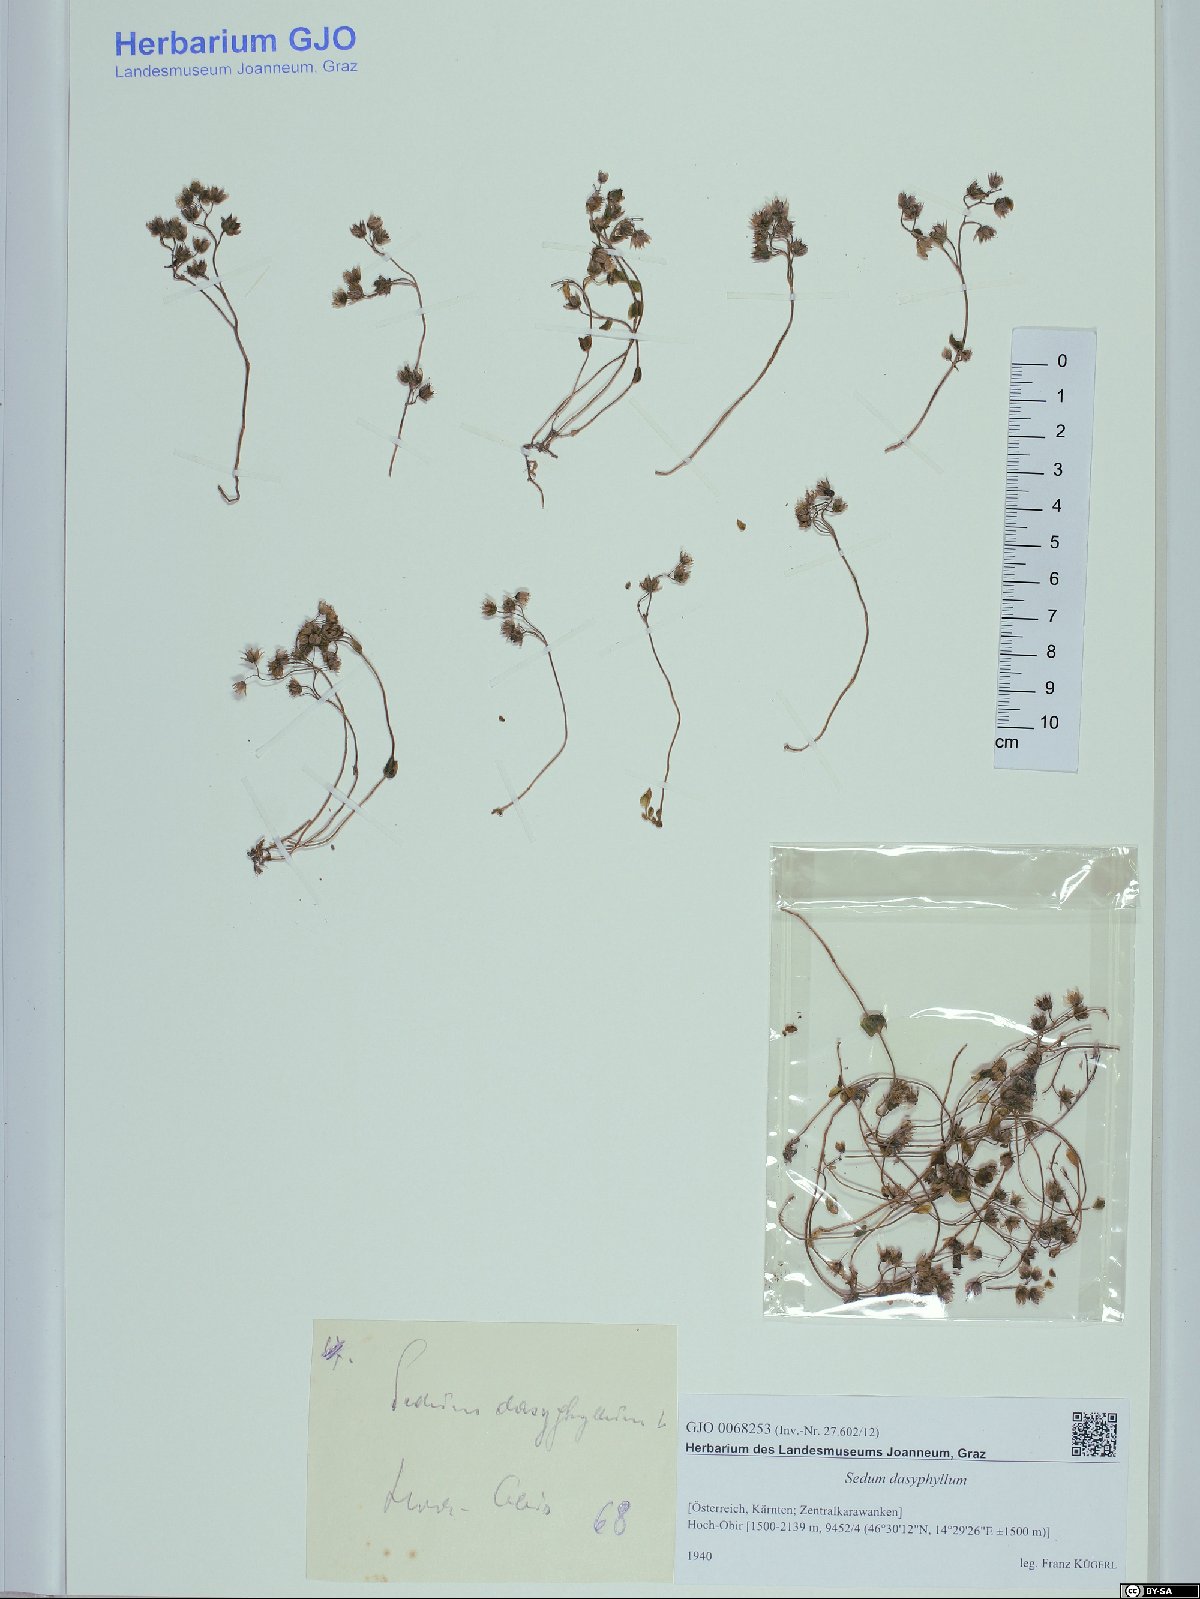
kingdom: Plantae
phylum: Tracheophyta
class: Magnoliopsida
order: Saxifragales
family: Crassulaceae
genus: Sedum
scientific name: Sedum dasyphyllum
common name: Thick-leaf stonecrop
